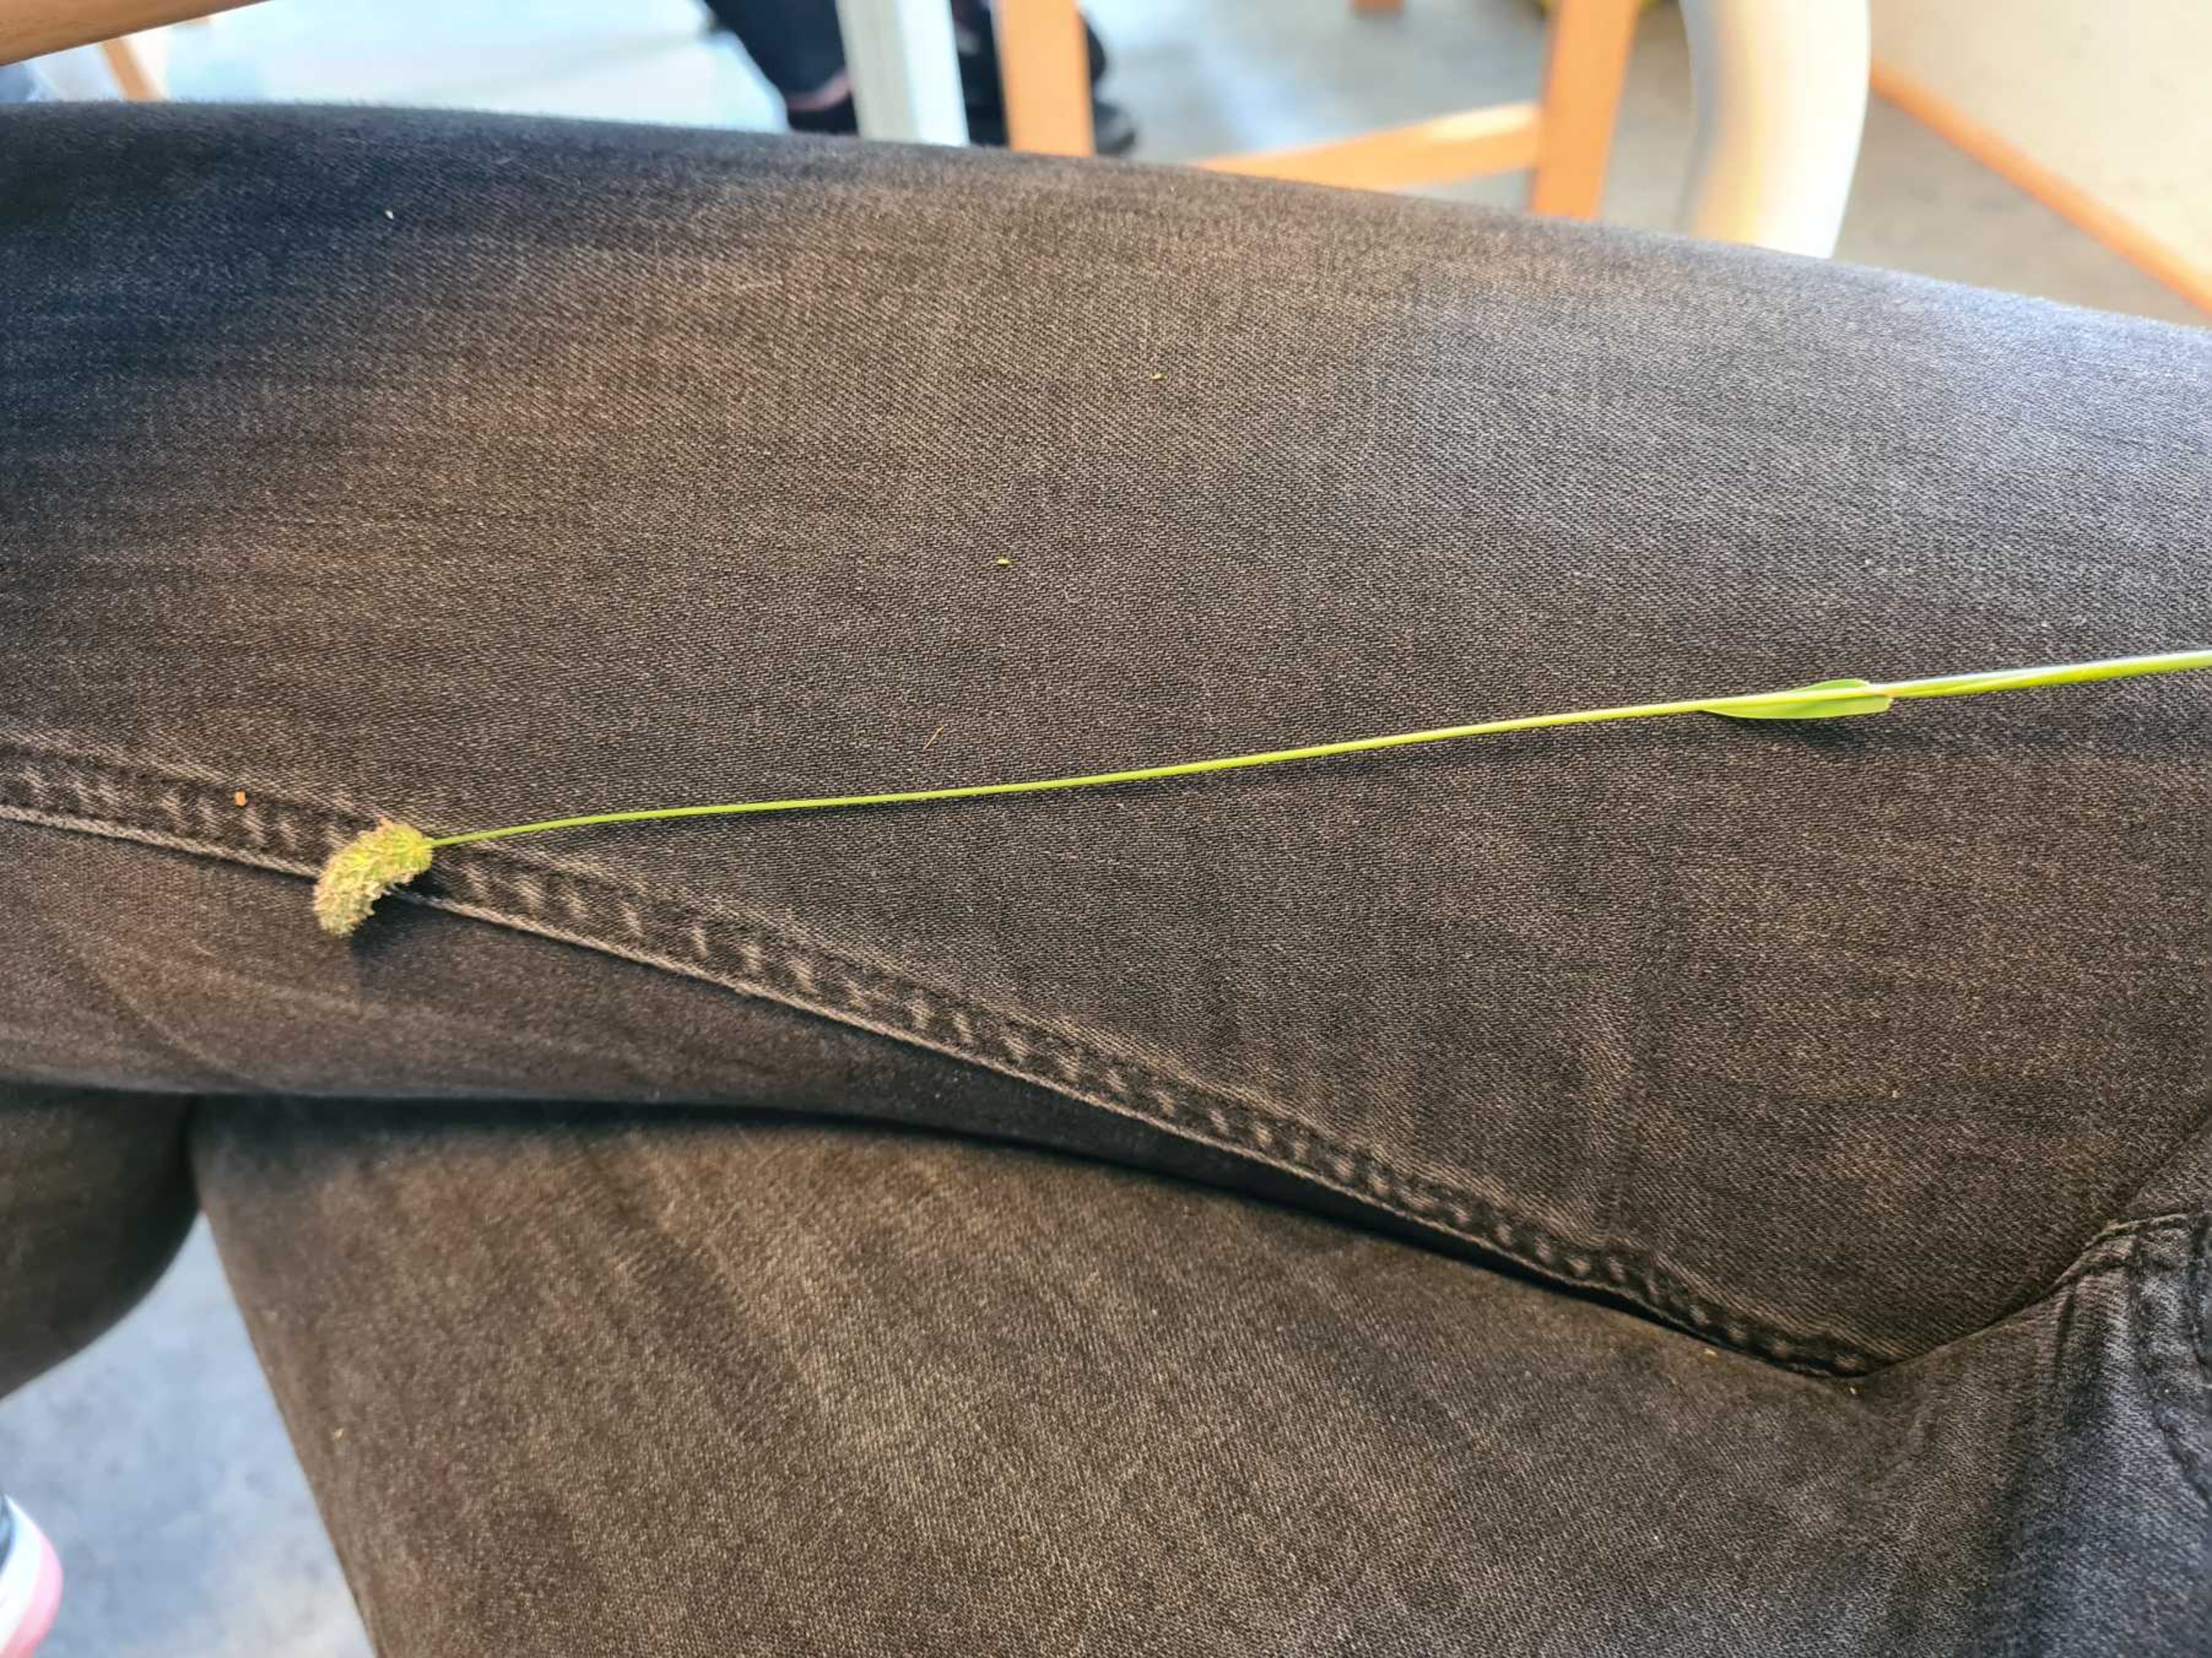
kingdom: Plantae
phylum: Tracheophyta
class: Liliopsida
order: Poales
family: Poaceae
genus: Phleum
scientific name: Phleum pratense
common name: Eng-rottehale
